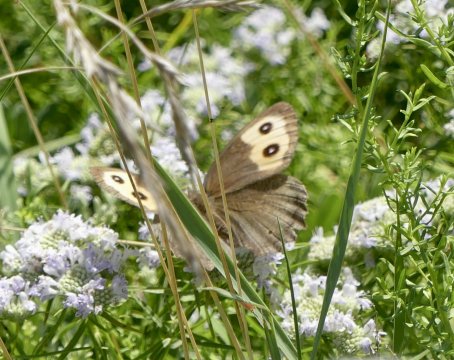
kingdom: Animalia
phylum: Arthropoda
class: Insecta
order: Lepidoptera
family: Nymphalidae
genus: Cercyonis
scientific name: Cercyonis pegala
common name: Common Wood-Nymph
